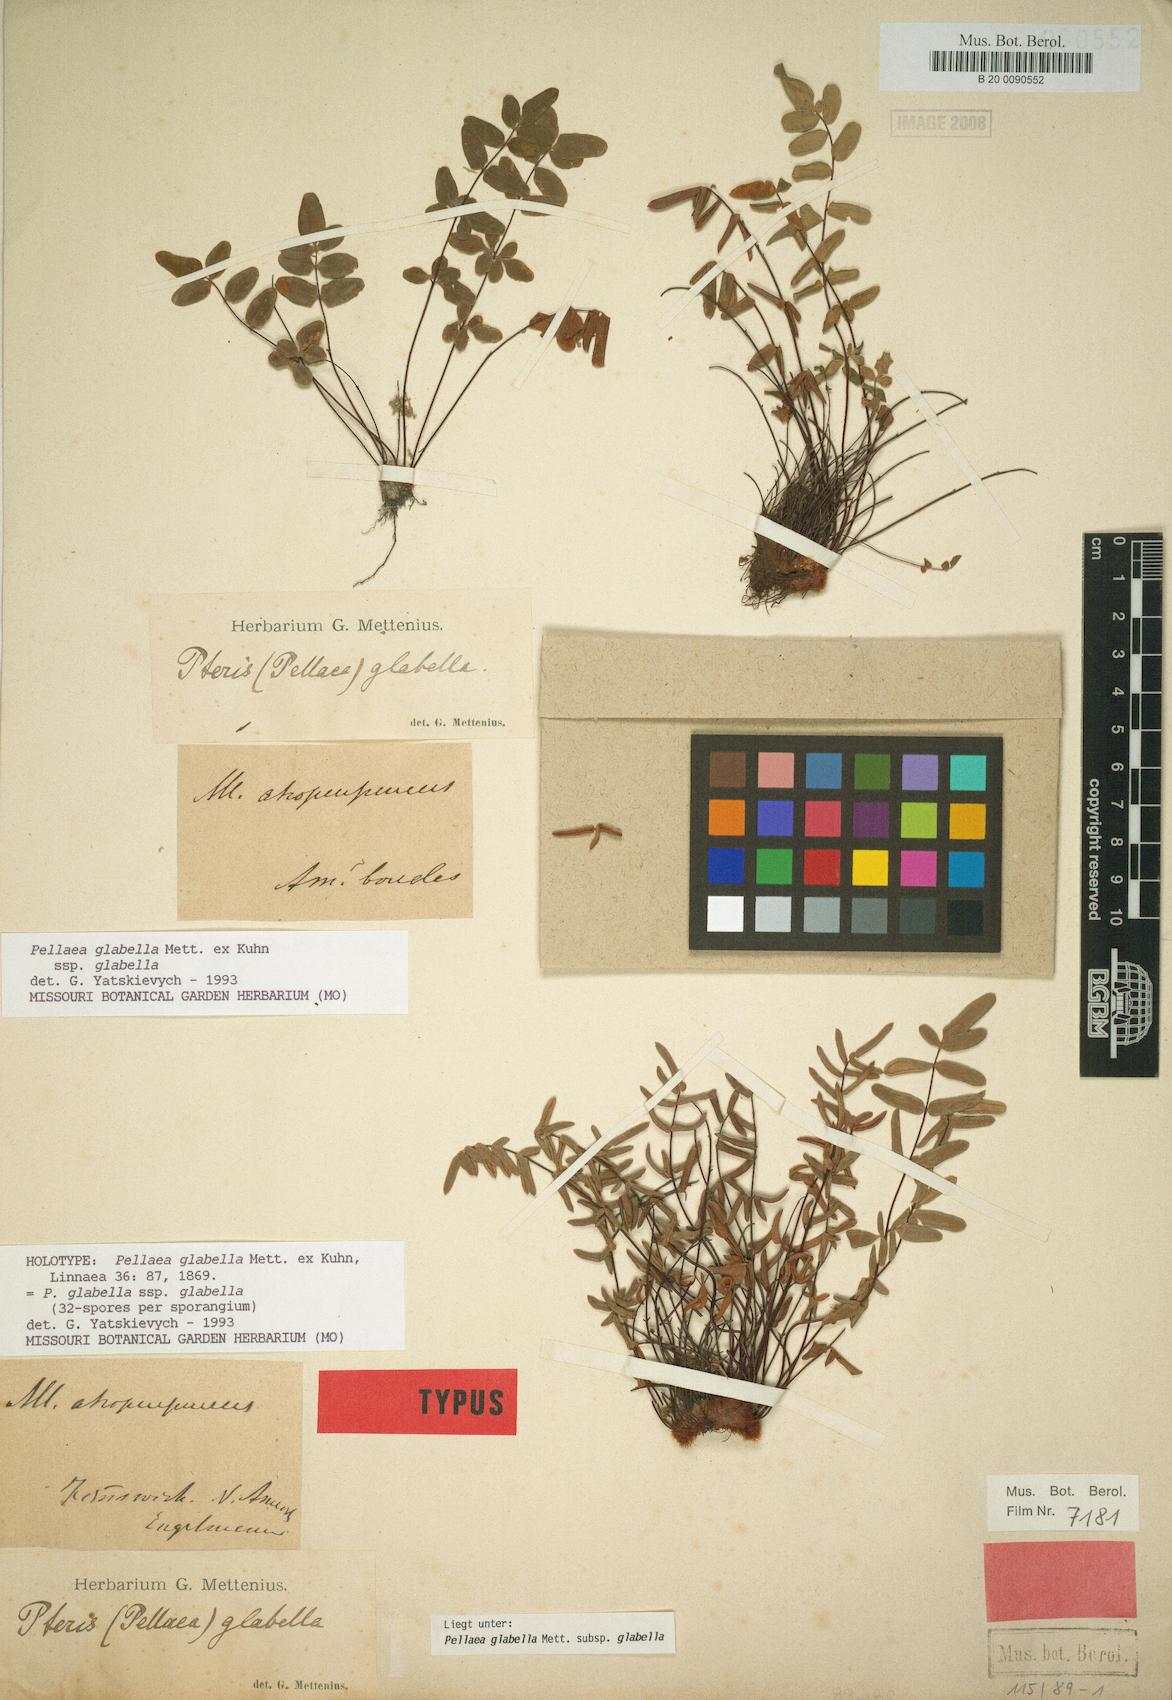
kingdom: Plantae
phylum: Tracheophyta
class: Polypodiopsida
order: Polypodiales
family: Pteridaceae
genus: Pellaea
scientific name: Pellaea glabella
